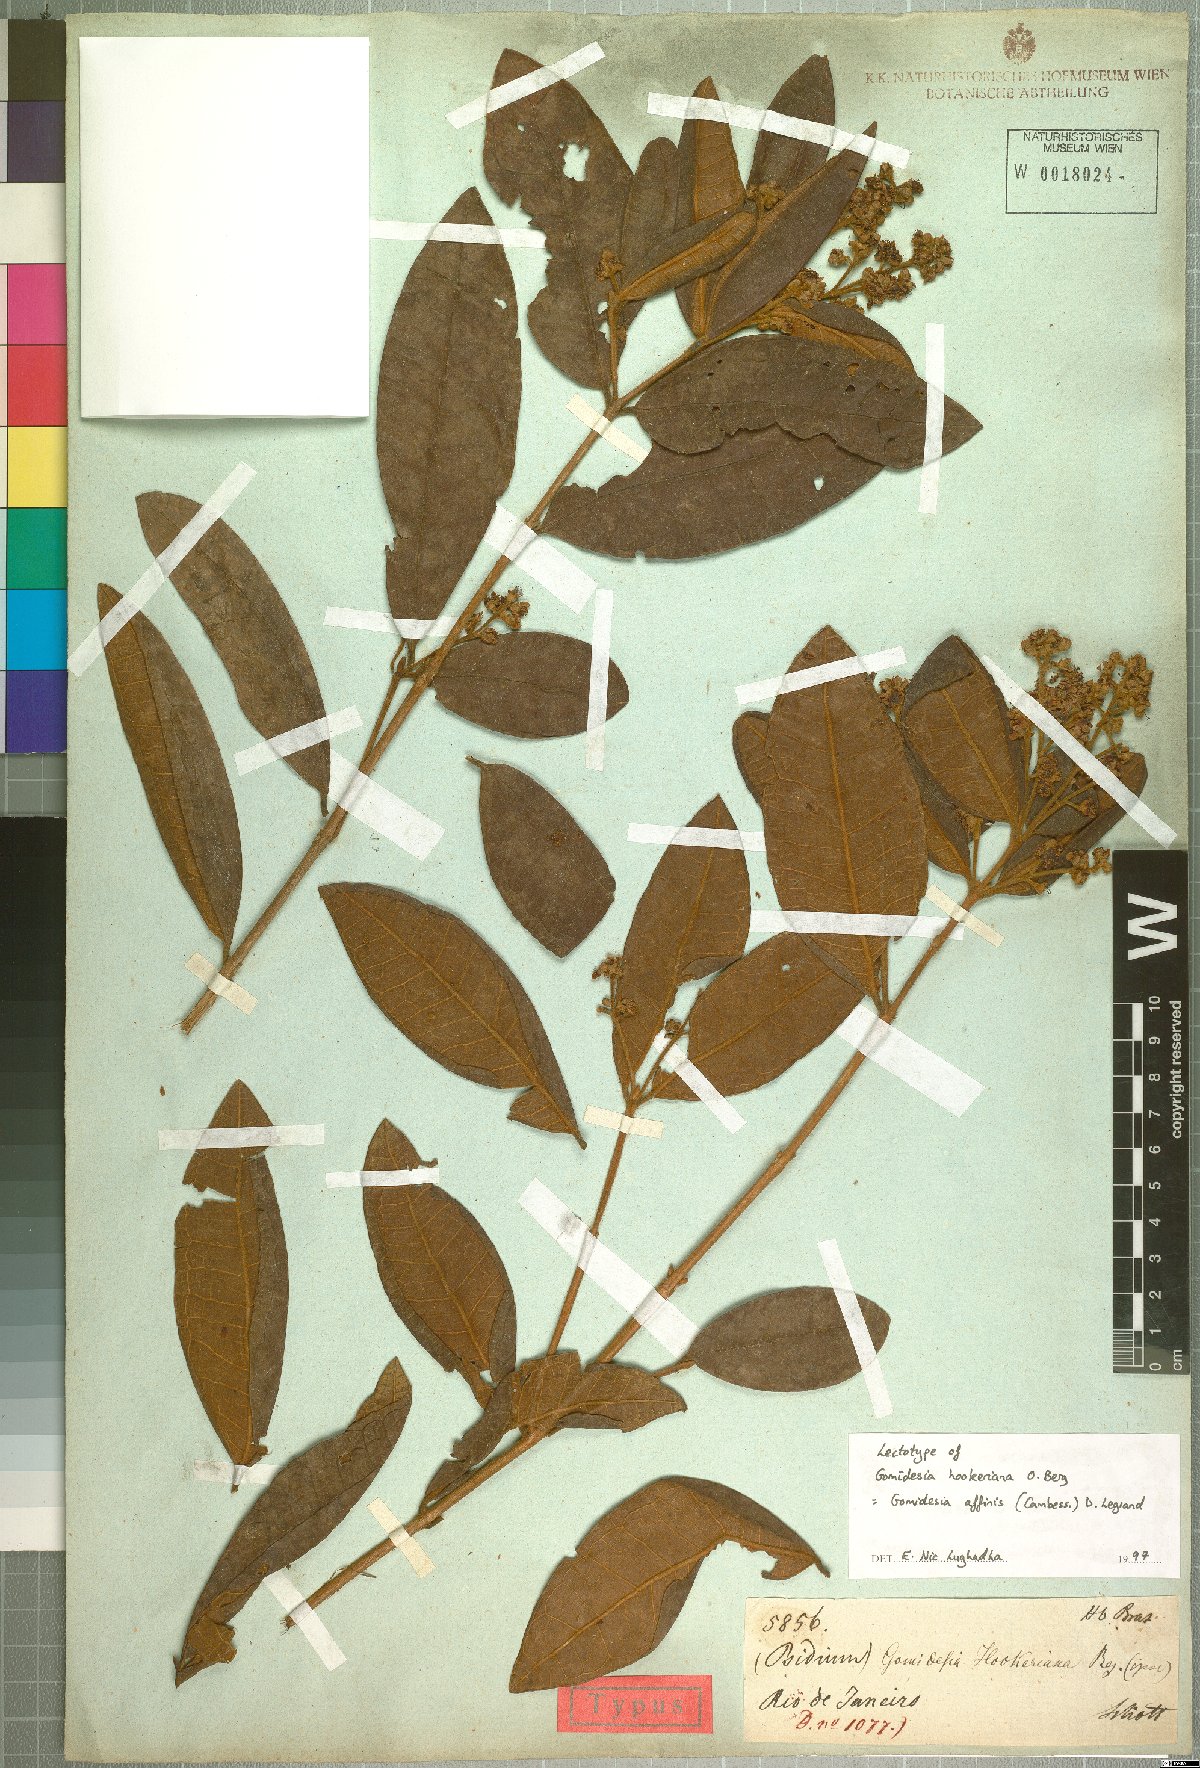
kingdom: Plantae
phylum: Tracheophyta
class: Magnoliopsida
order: Myrtales
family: Myrtaceae
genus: Myrcia
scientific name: Myrcia hebepetala
